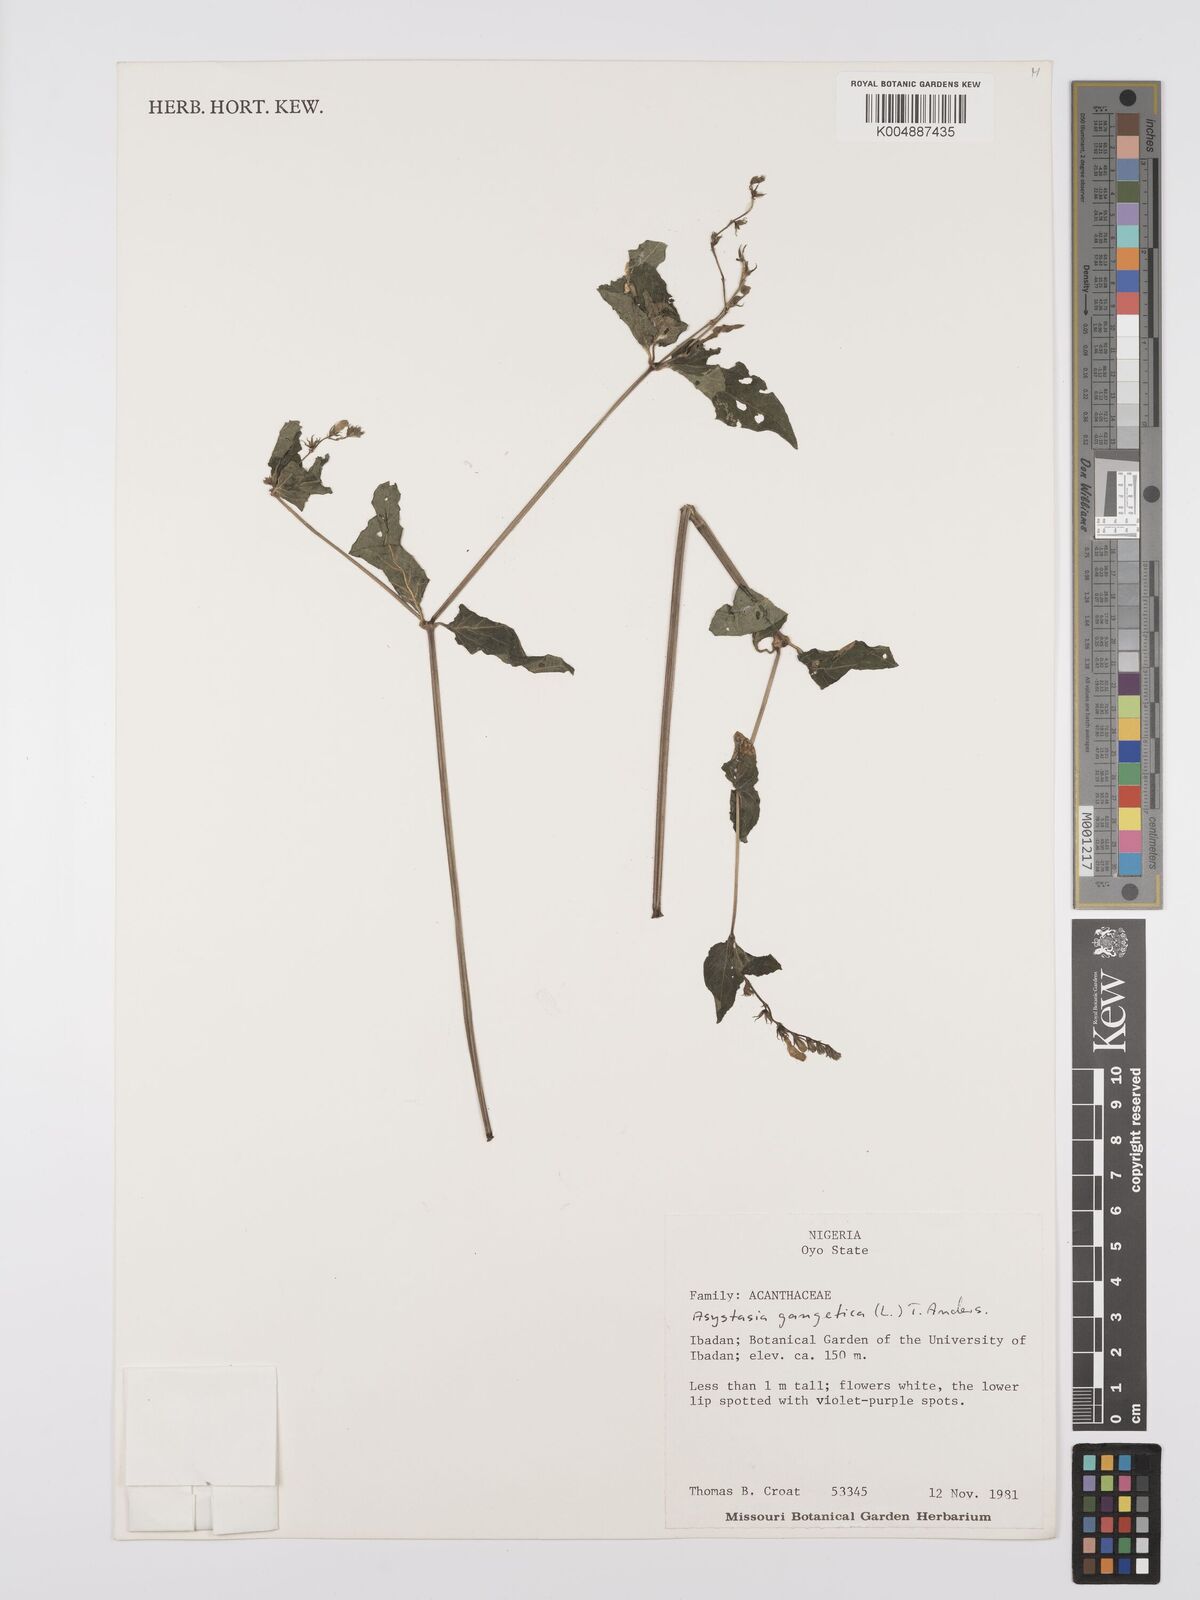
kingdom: Plantae
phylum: Tracheophyta
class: Magnoliopsida
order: Lamiales
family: Acanthaceae
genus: Asystasia
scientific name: Asystasia gangetica
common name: Chinese violet
